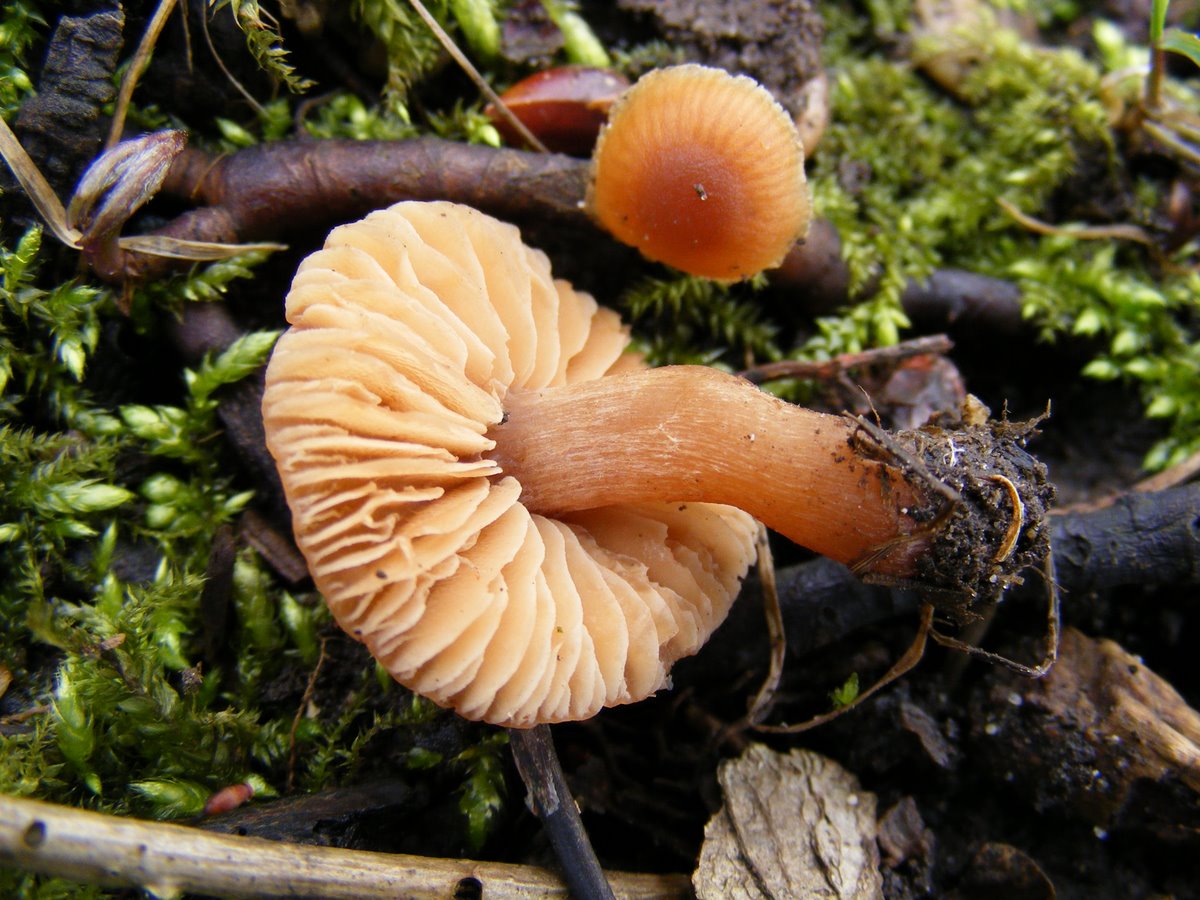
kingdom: Fungi
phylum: Basidiomycota
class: Agaricomycetes
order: Agaricales
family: Tubariaceae
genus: Tubaria
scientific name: Tubaria furfuracea
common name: kliddet fnughat
